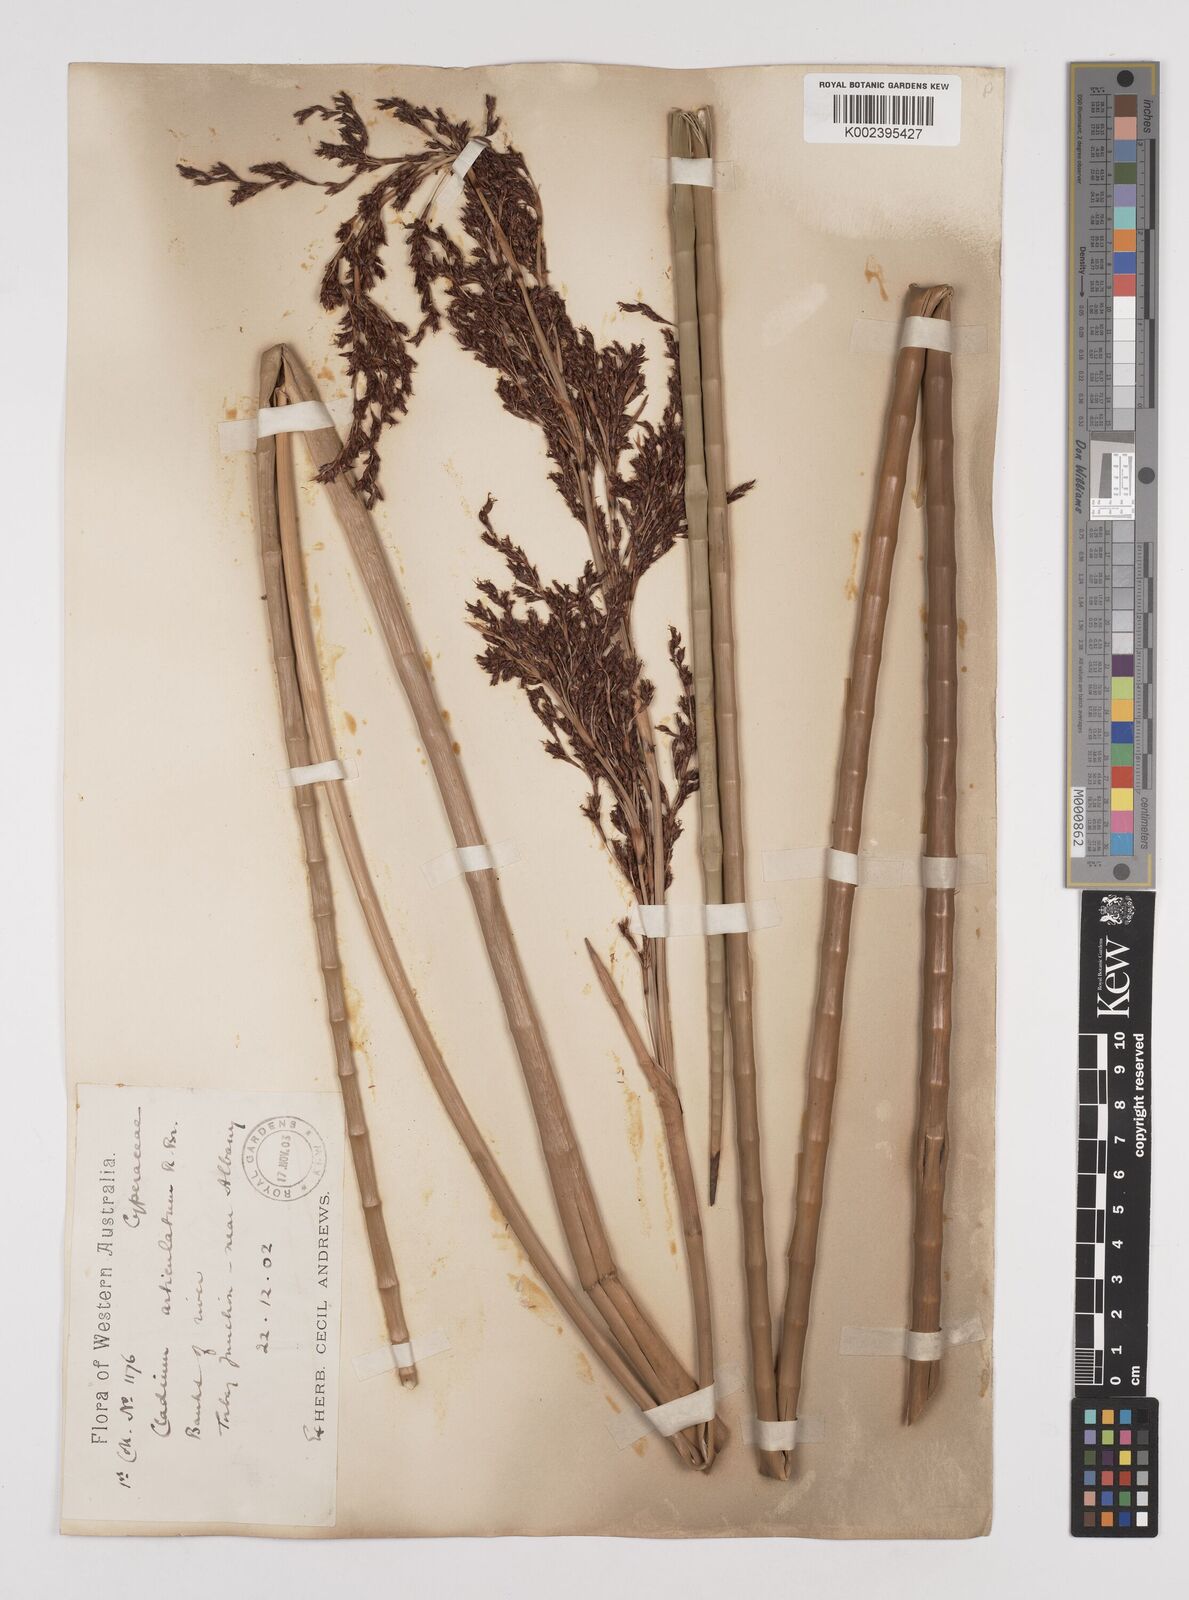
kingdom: Plantae
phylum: Tracheophyta
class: Liliopsida
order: Poales
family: Cyperaceae
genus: Machaerina
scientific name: Machaerina articulata
